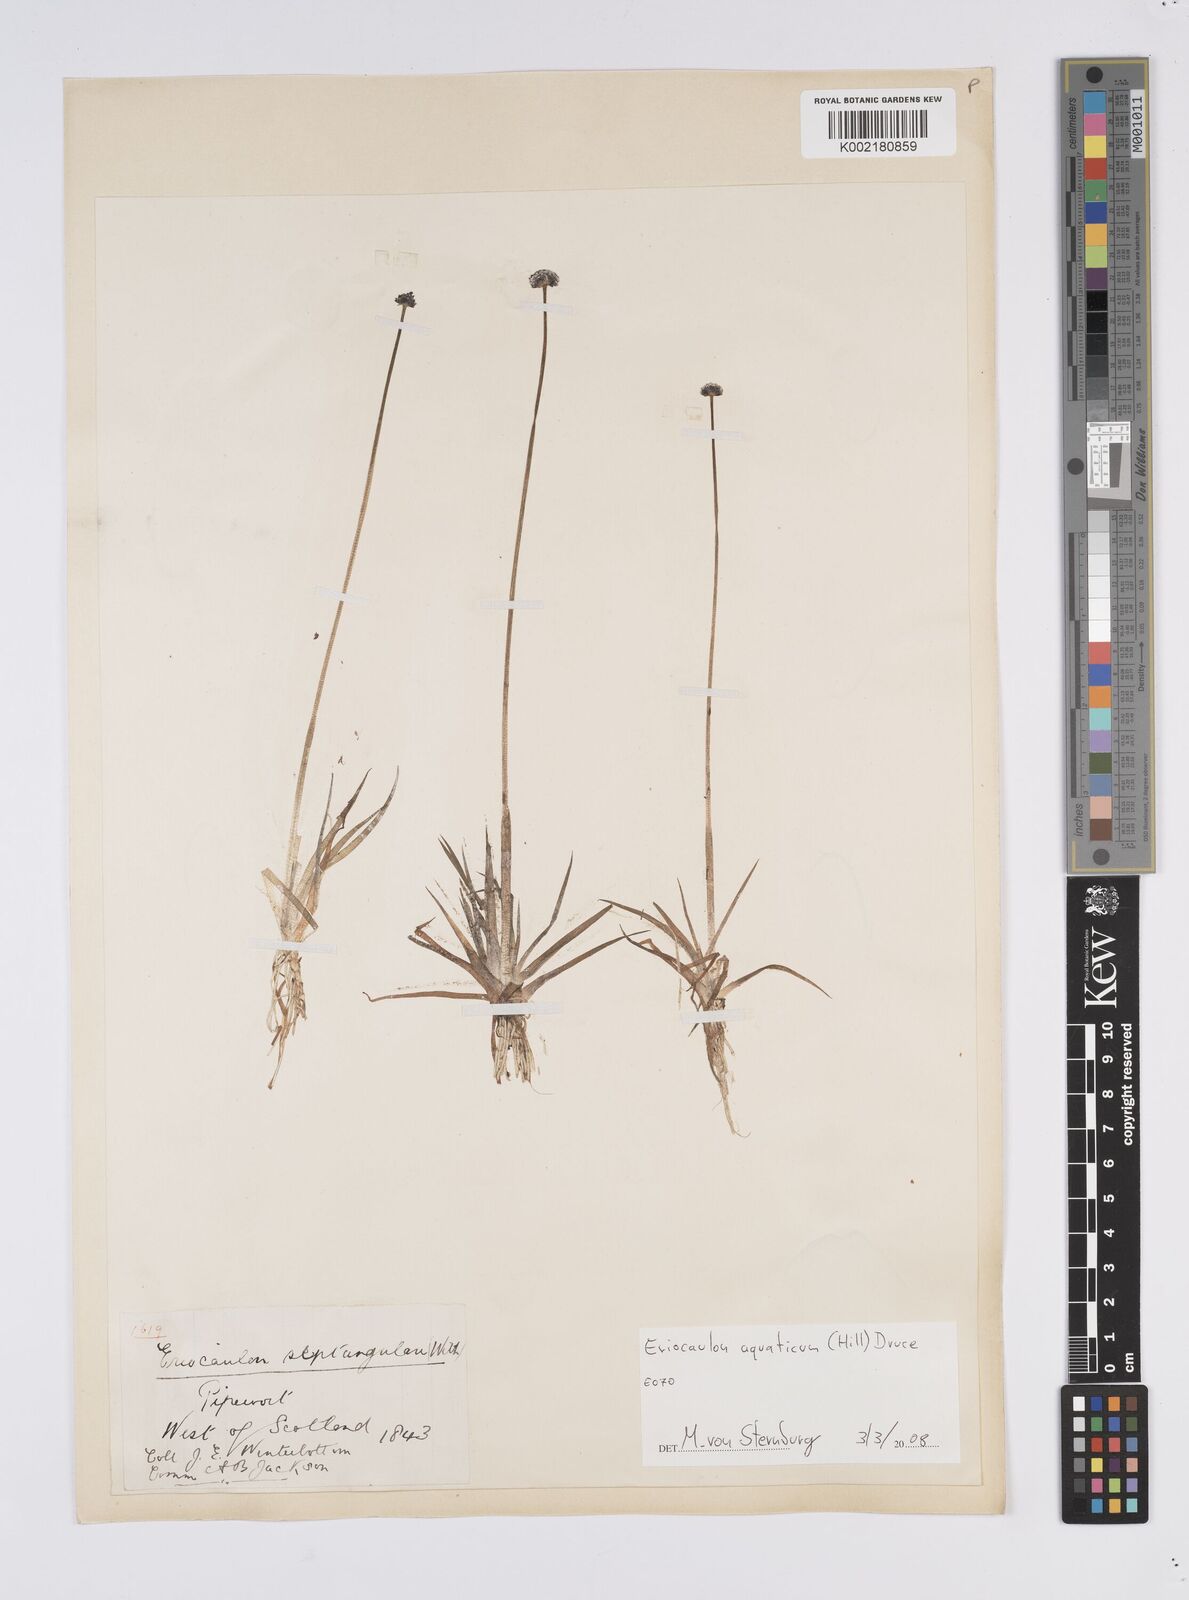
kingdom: Plantae
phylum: Tracheophyta
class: Liliopsida
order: Poales
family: Eriocaulaceae
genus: Eriocaulon
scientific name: Eriocaulon aquaticum
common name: Pipewort
